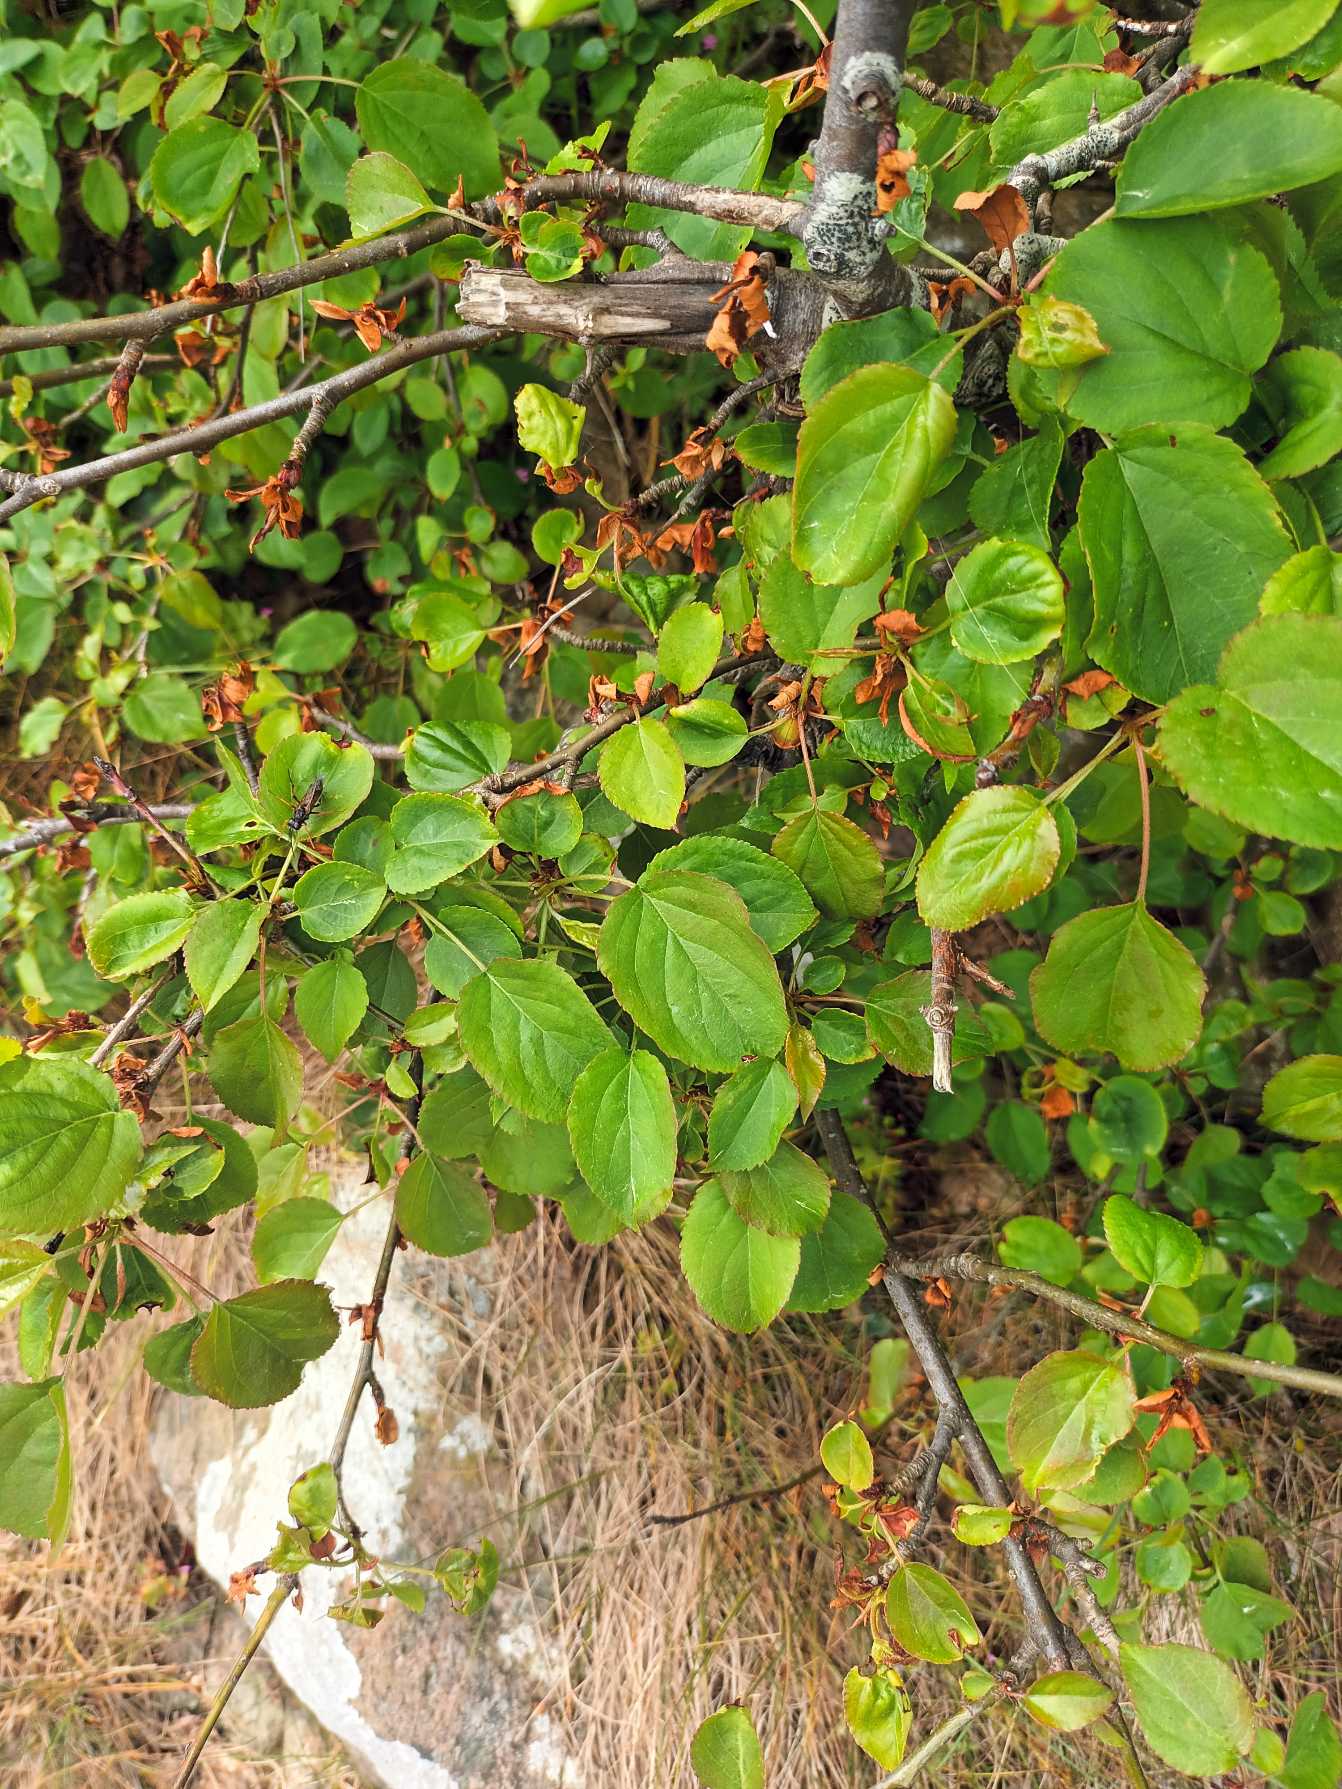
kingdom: Plantae
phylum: Tracheophyta
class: Magnoliopsida
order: Rosales
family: Rosaceae
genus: Malus
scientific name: Malus sylvestris
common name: Skov-æble
